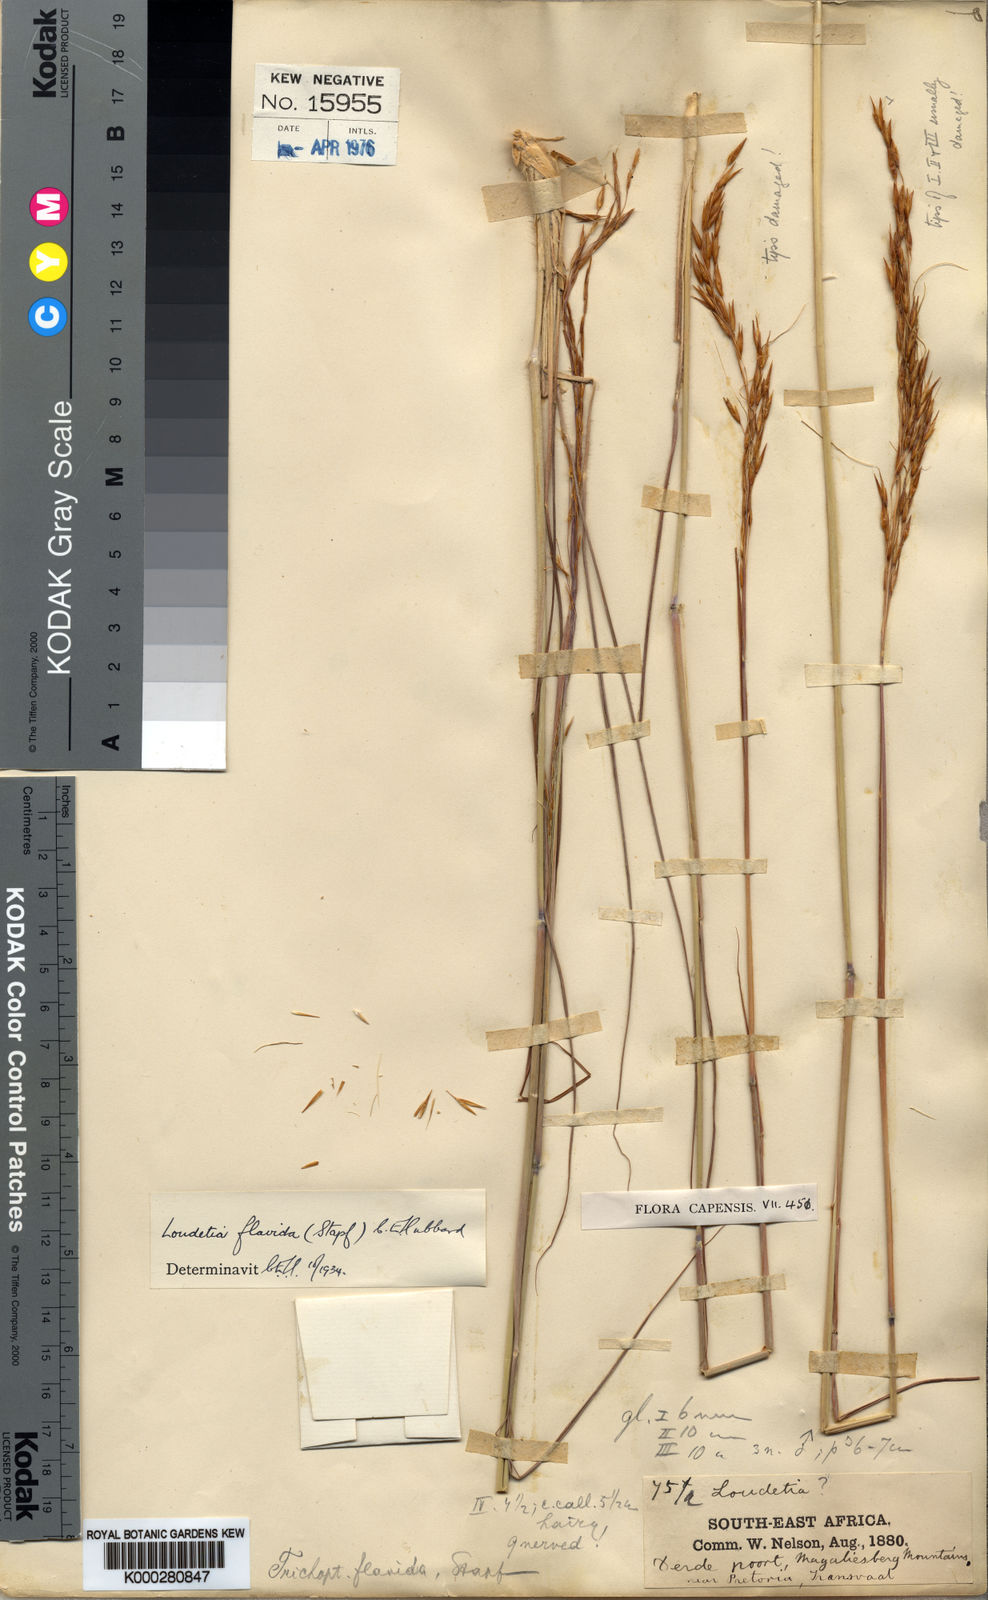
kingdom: Plantae
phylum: Tracheophyta
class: Liliopsida
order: Poales
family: Poaceae
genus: Loudetia
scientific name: Loudetia flavida
